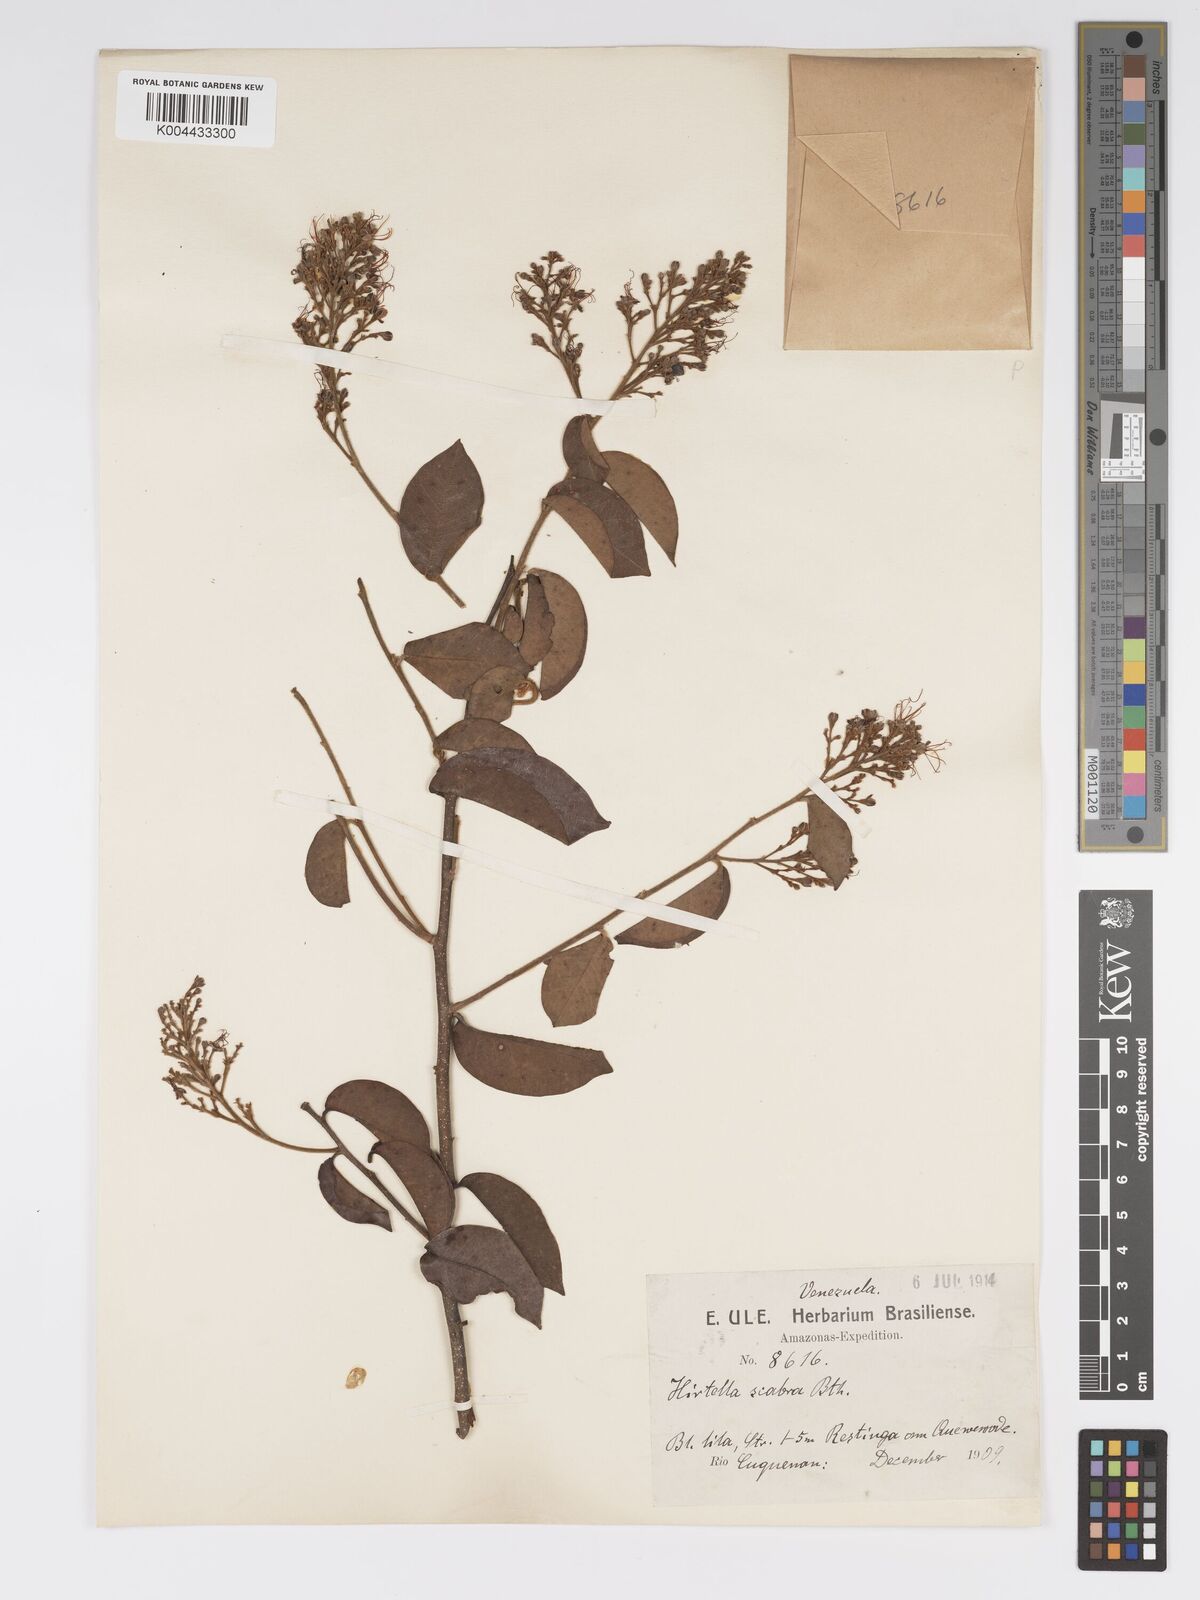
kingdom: Plantae
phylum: Tracheophyta
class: Magnoliopsida
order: Malpighiales
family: Chrysobalanaceae
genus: Hirtella
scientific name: Hirtella scabra
